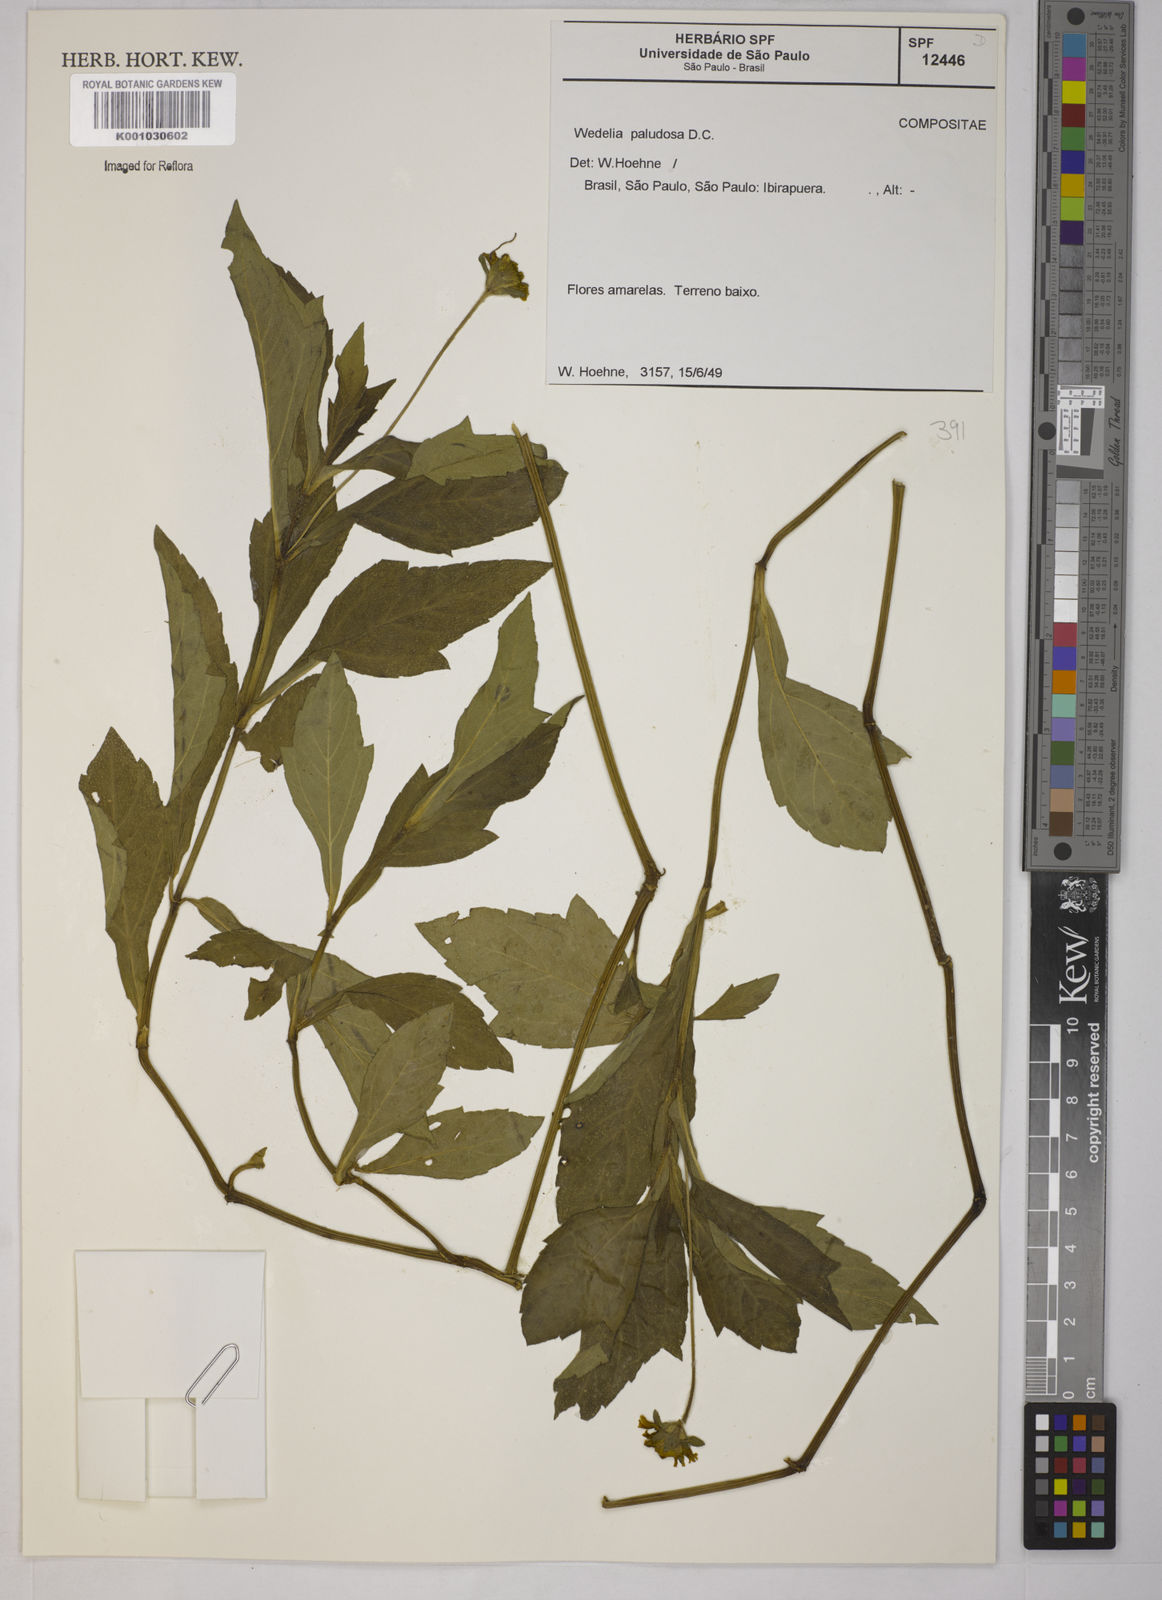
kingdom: Plantae
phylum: Tracheophyta
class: Magnoliopsida
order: Asterales
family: Asteraceae
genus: Sphagneticola
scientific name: Sphagneticola trilobata
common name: Bay biscayne creeping-oxeye
